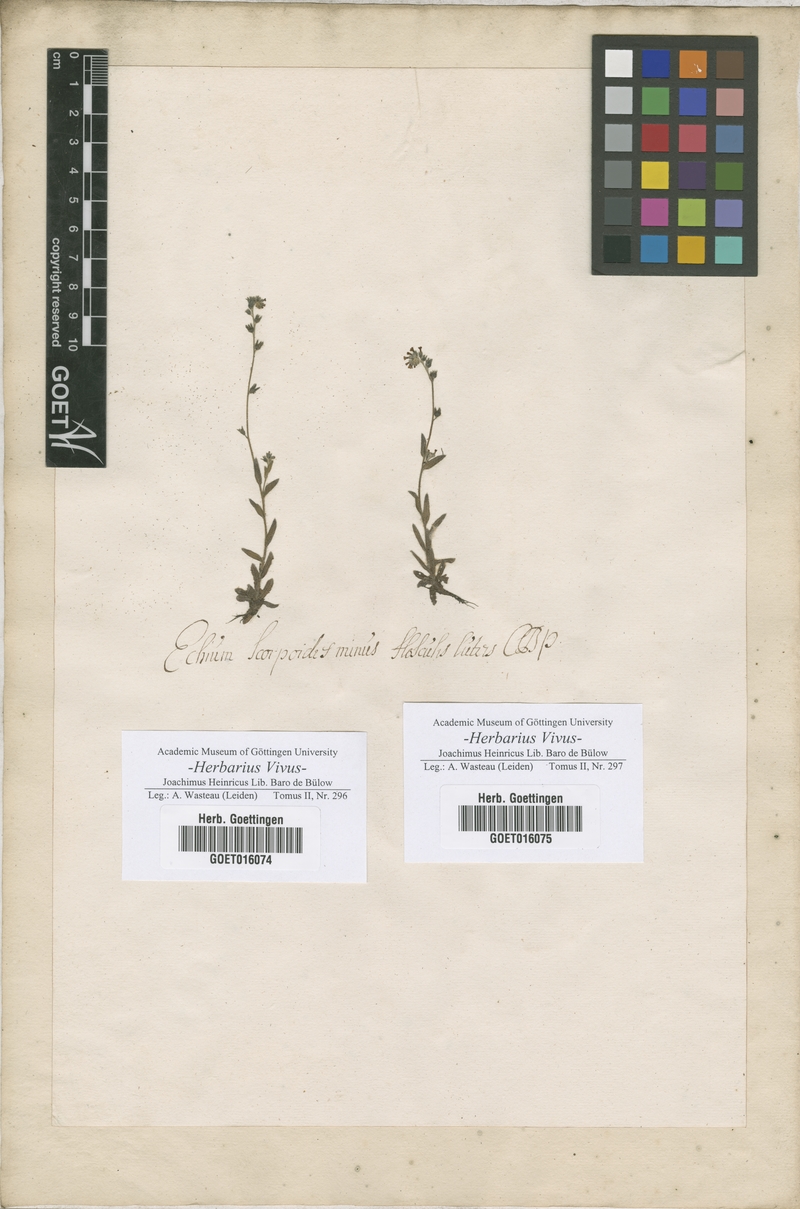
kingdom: Plantae
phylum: Tracheophyta
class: Magnoliopsida
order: Boraginales
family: Boraginaceae
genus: Echium
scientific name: Echium
